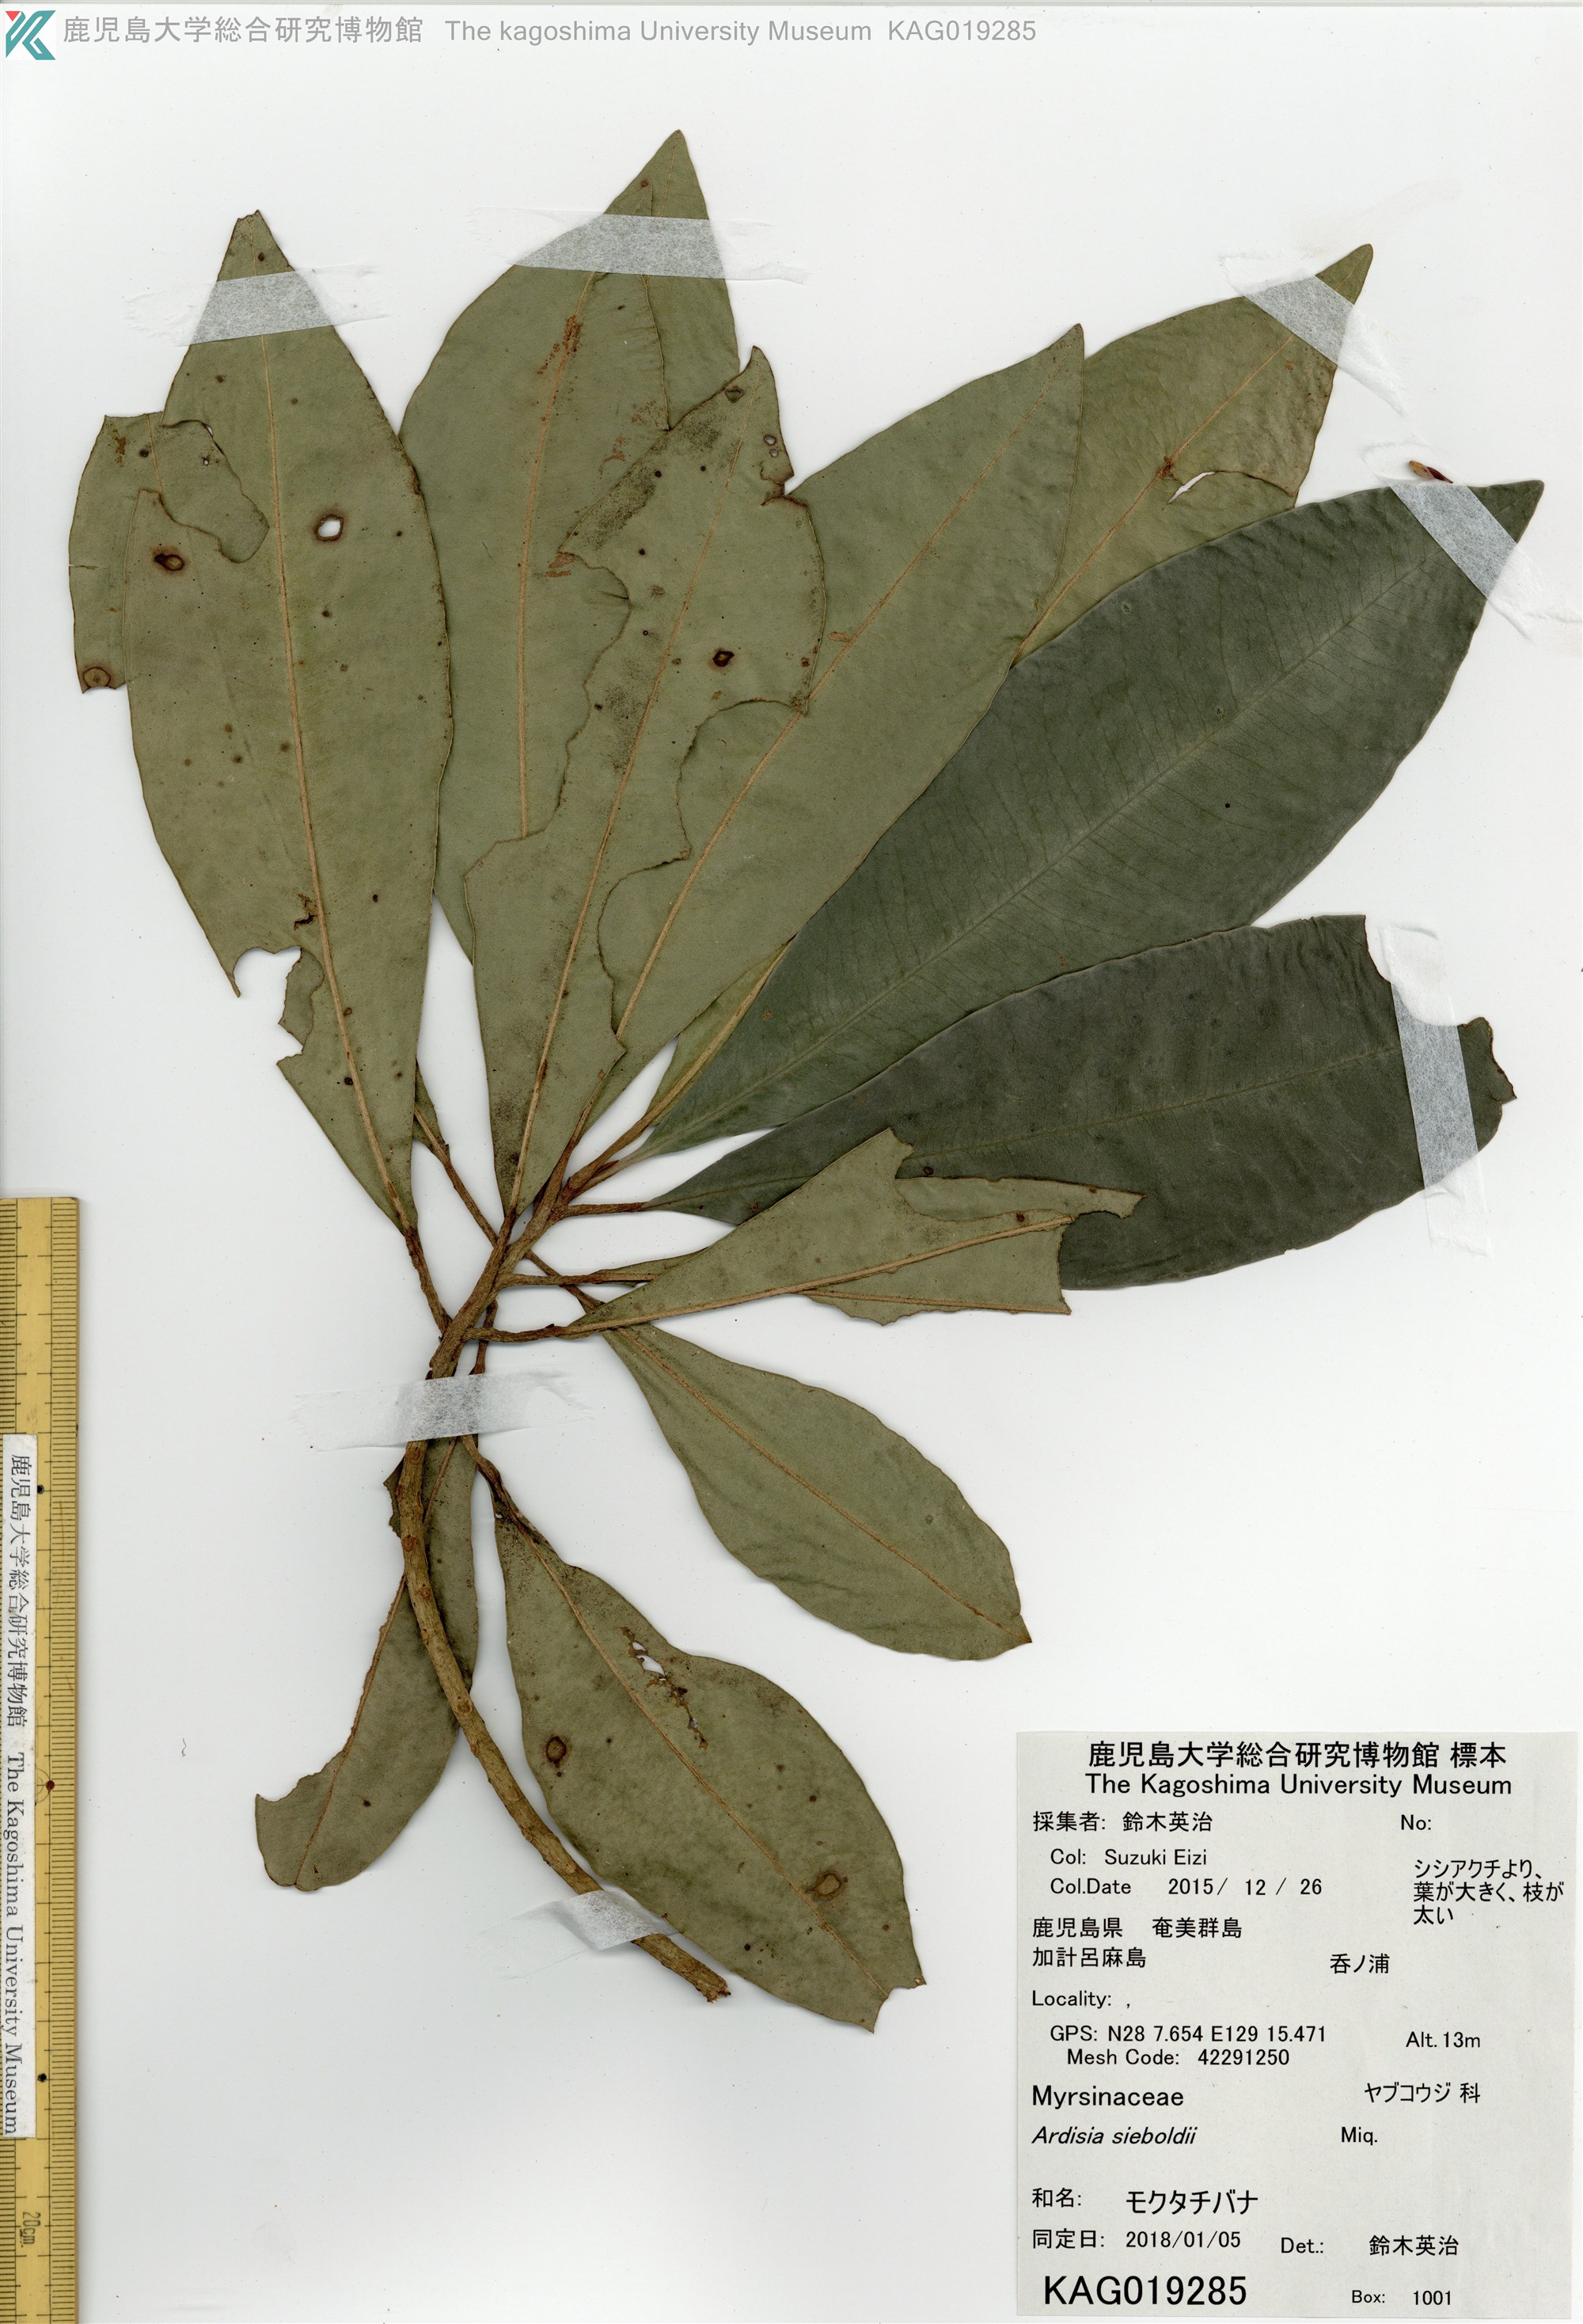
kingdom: Plantae
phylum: Tracheophyta
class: Magnoliopsida
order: Ericales
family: Primulaceae
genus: Ardisia
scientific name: Ardisia sieboldii
